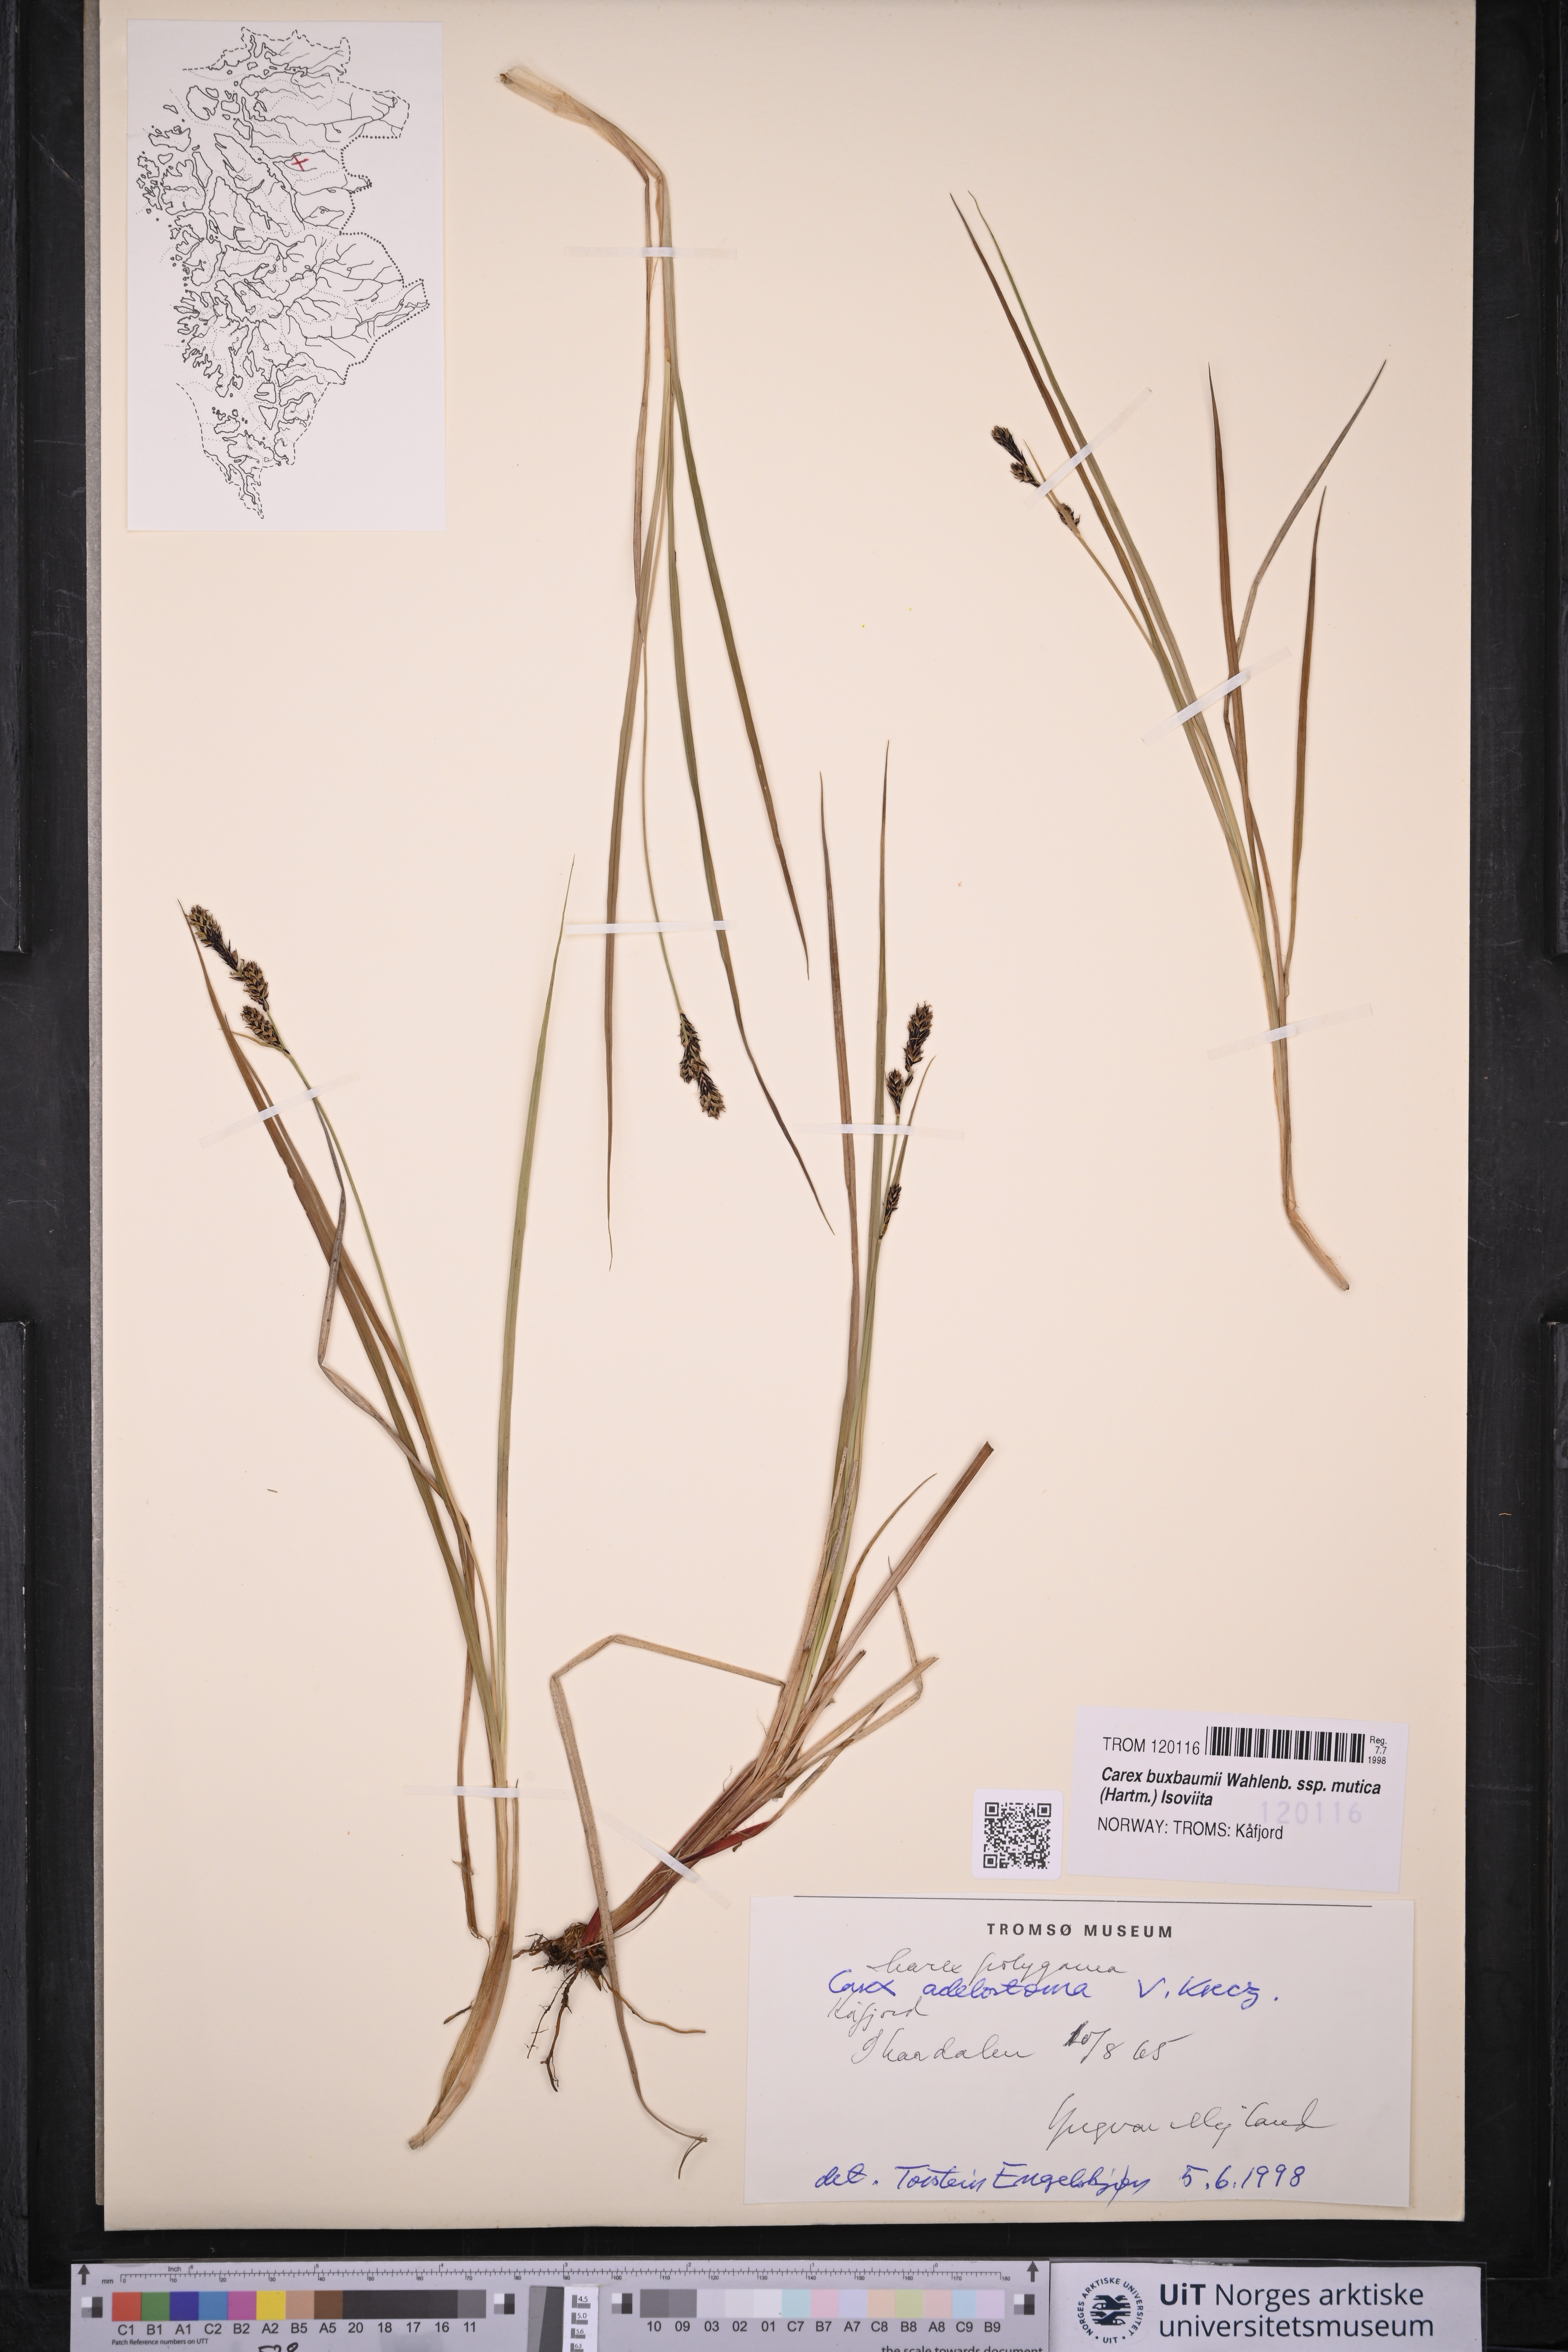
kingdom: Plantae
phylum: Tracheophyta
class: Liliopsida
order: Poales
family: Cyperaceae
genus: Carex
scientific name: Carex adelostoma
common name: Circumpolar sedge
